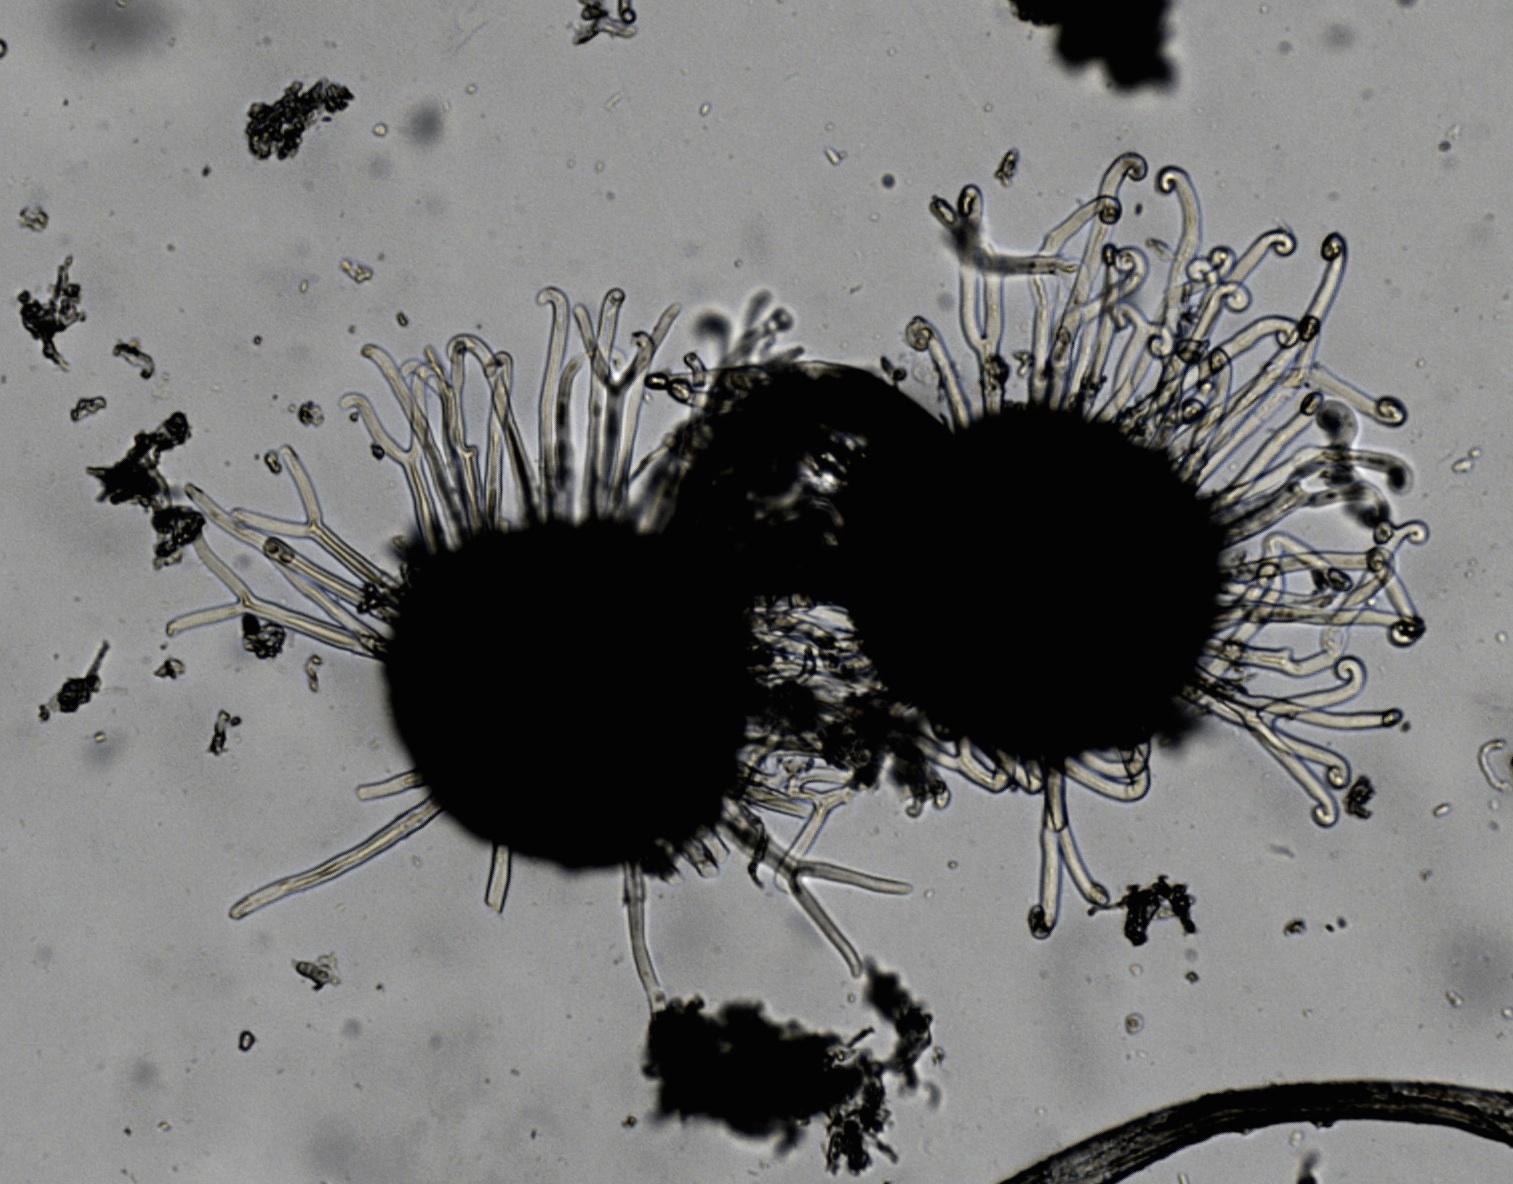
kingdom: Fungi
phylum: Ascomycota
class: Leotiomycetes
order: Helotiales
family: Erysiphaceae
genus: Sawadaea
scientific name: Sawadaea bicornis
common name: Maple mildew
